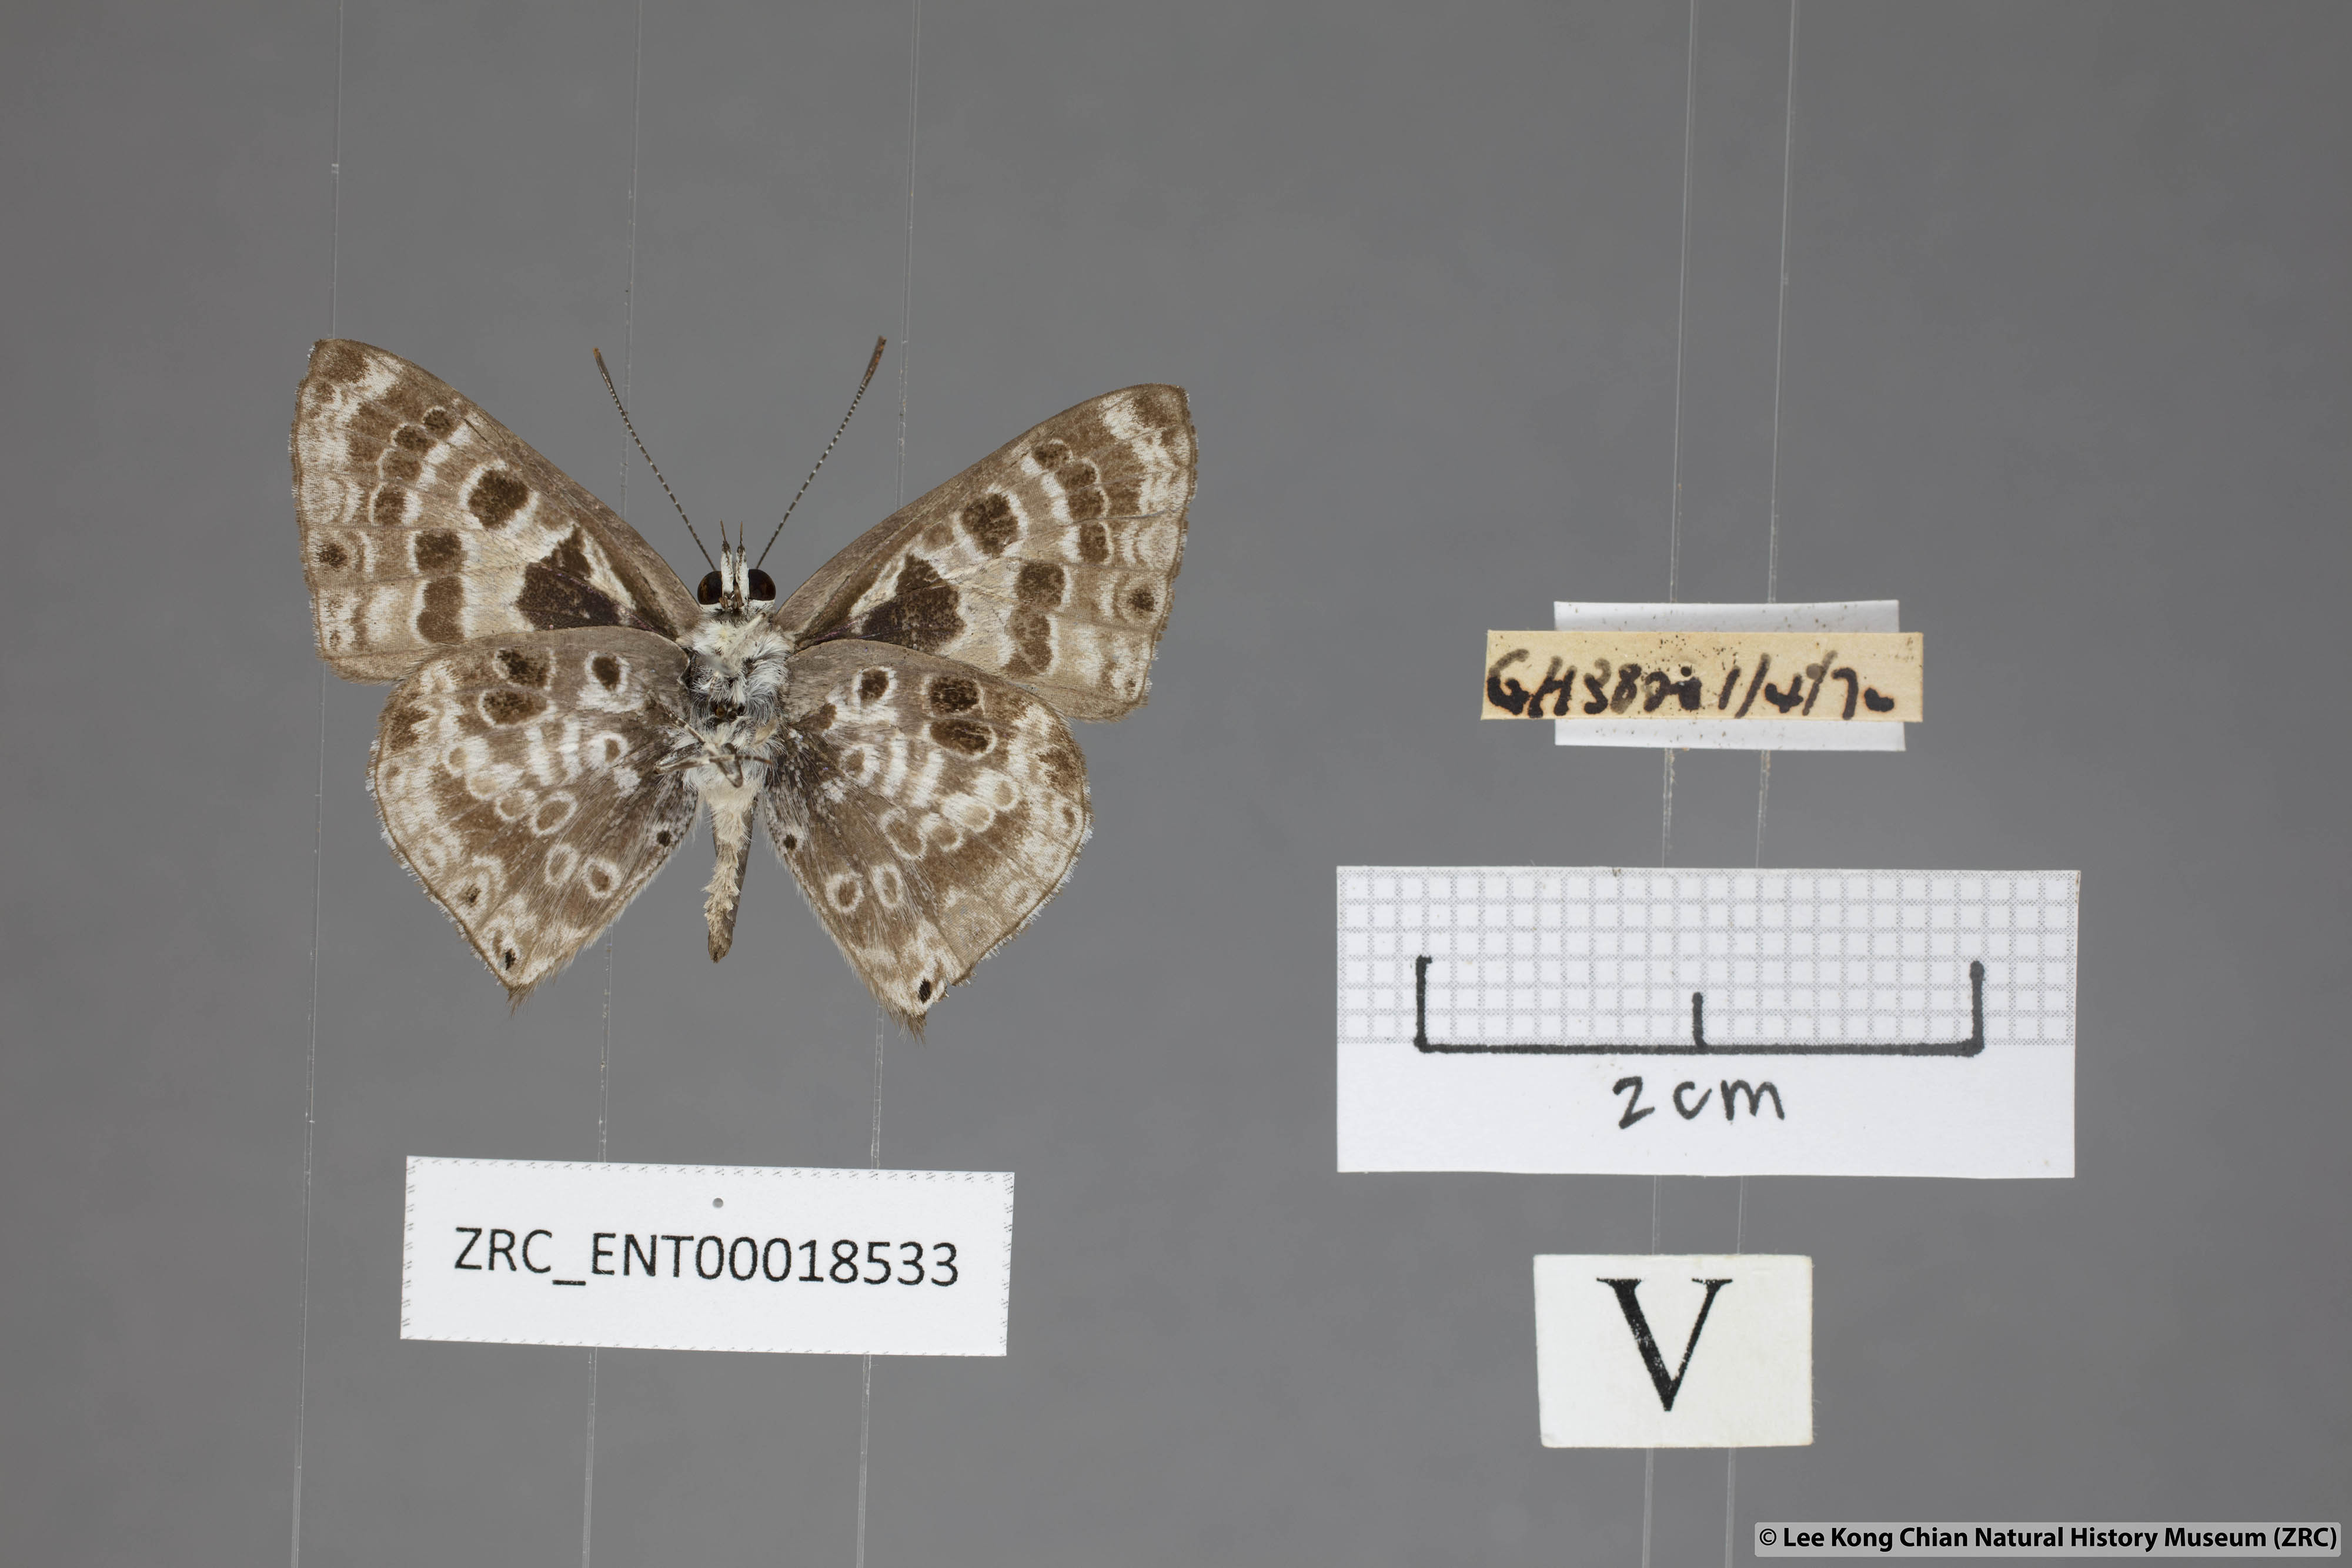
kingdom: Animalia
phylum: Arthropoda
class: Insecta
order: Lepidoptera
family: Lycaenidae
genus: Niphanda
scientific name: Niphanda tessellata
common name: Large pointed pierrot
